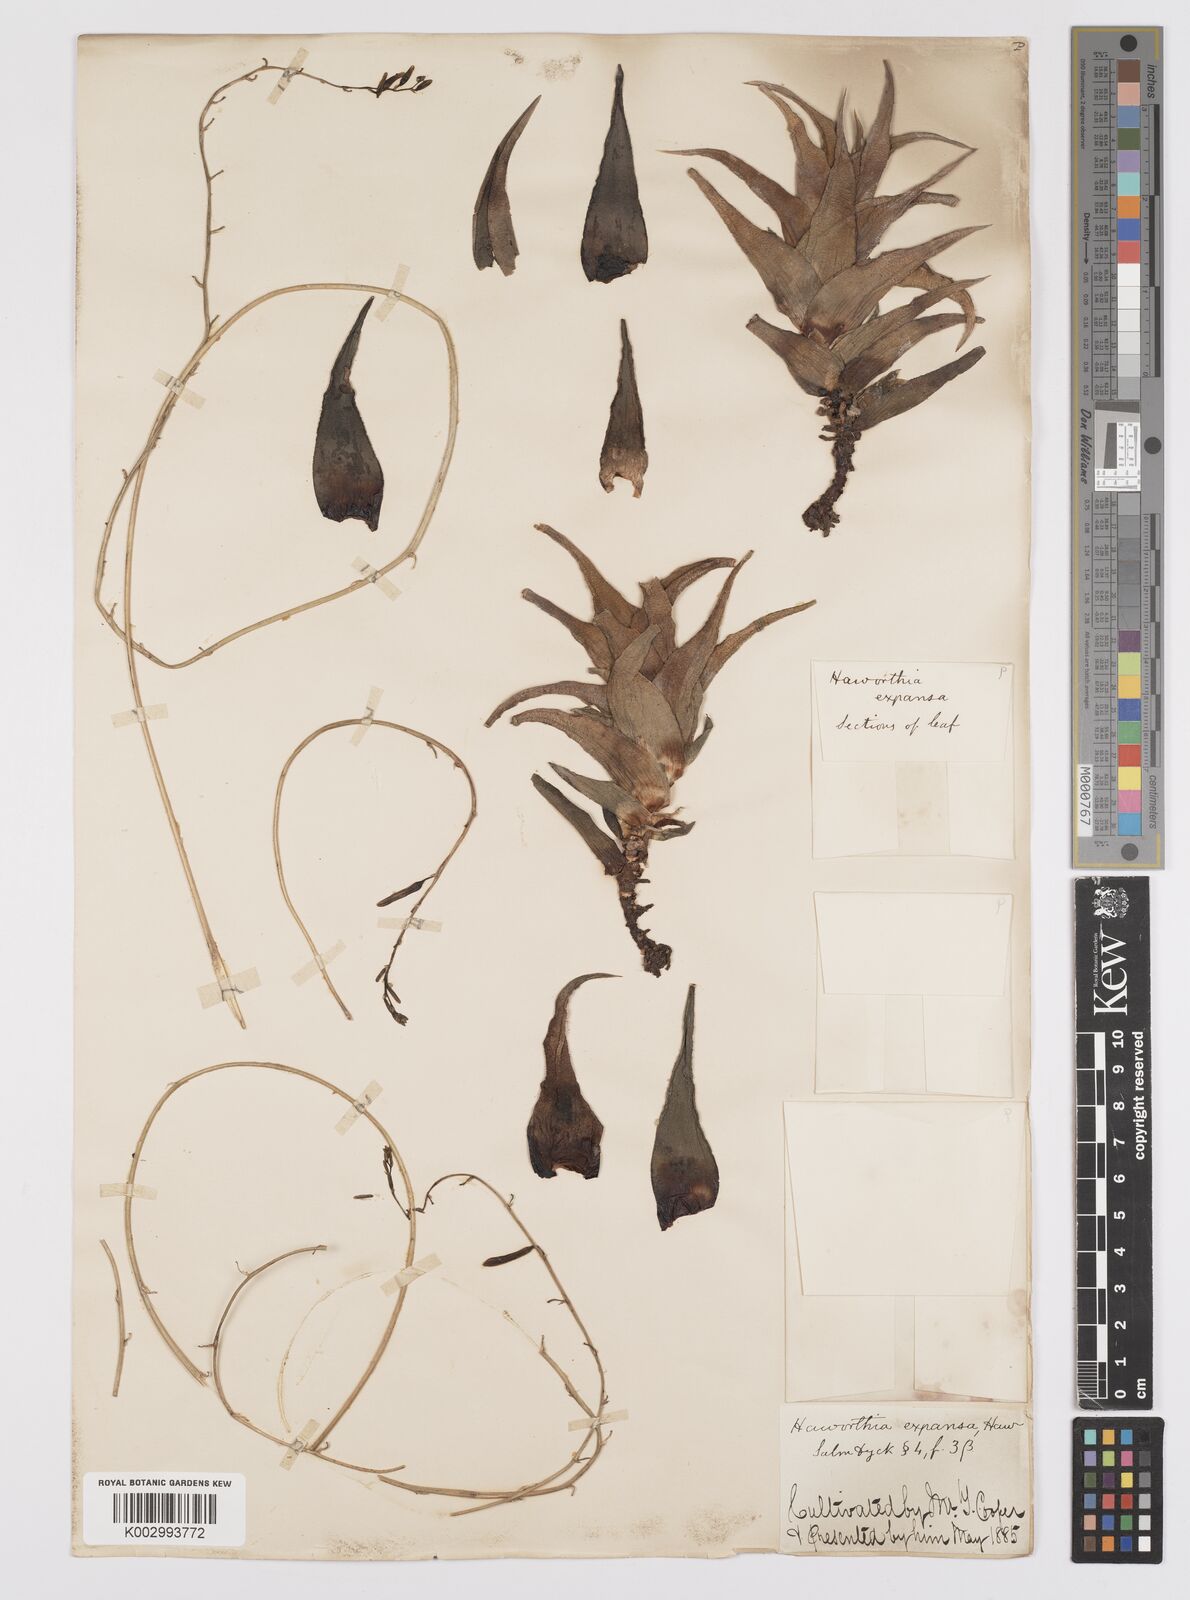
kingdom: Plantae
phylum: Tracheophyta
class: Liliopsida
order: Asparagales
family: Asphodelaceae
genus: Haworthia
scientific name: Haworthia
